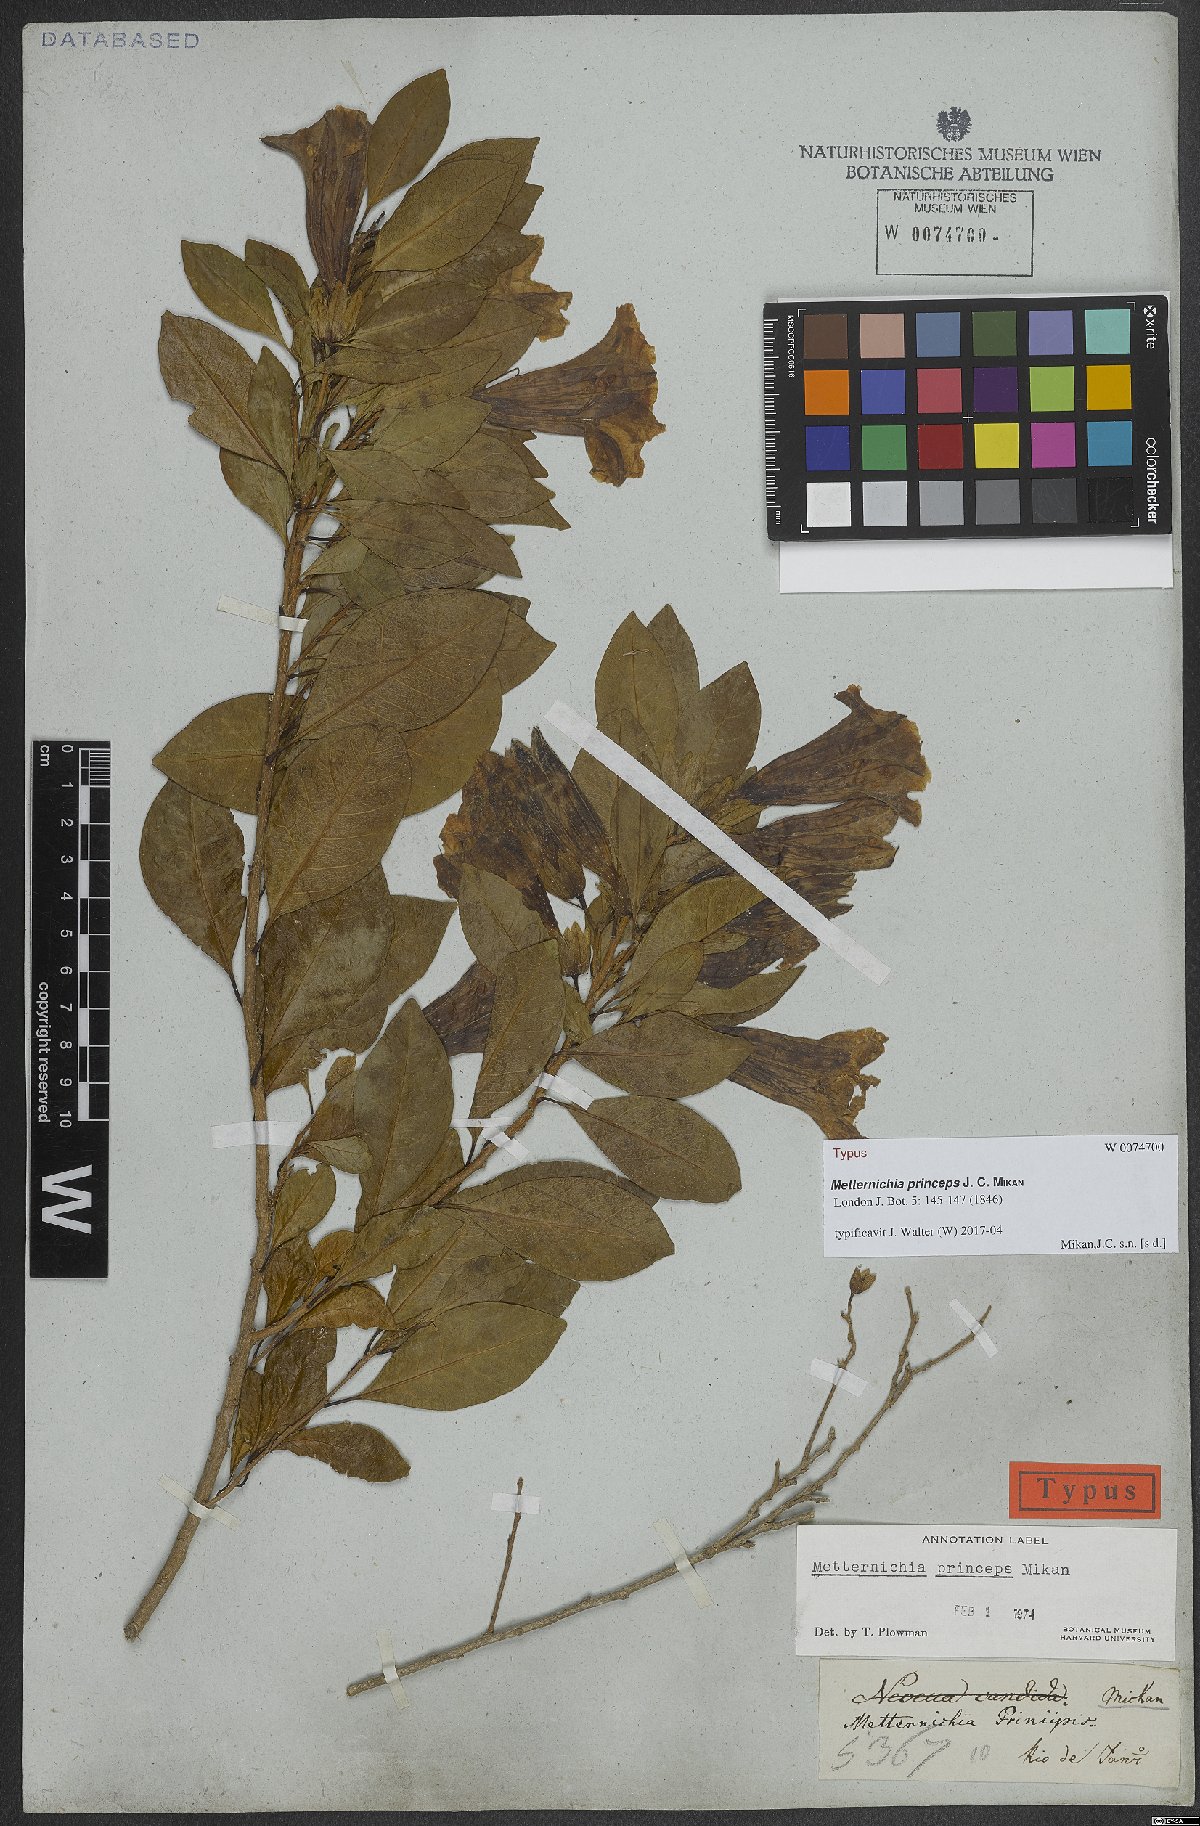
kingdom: Plantae
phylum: Tracheophyta
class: Magnoliopsida
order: Solanales
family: Solanaceae
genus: Metternichia
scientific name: Metternichia principis
